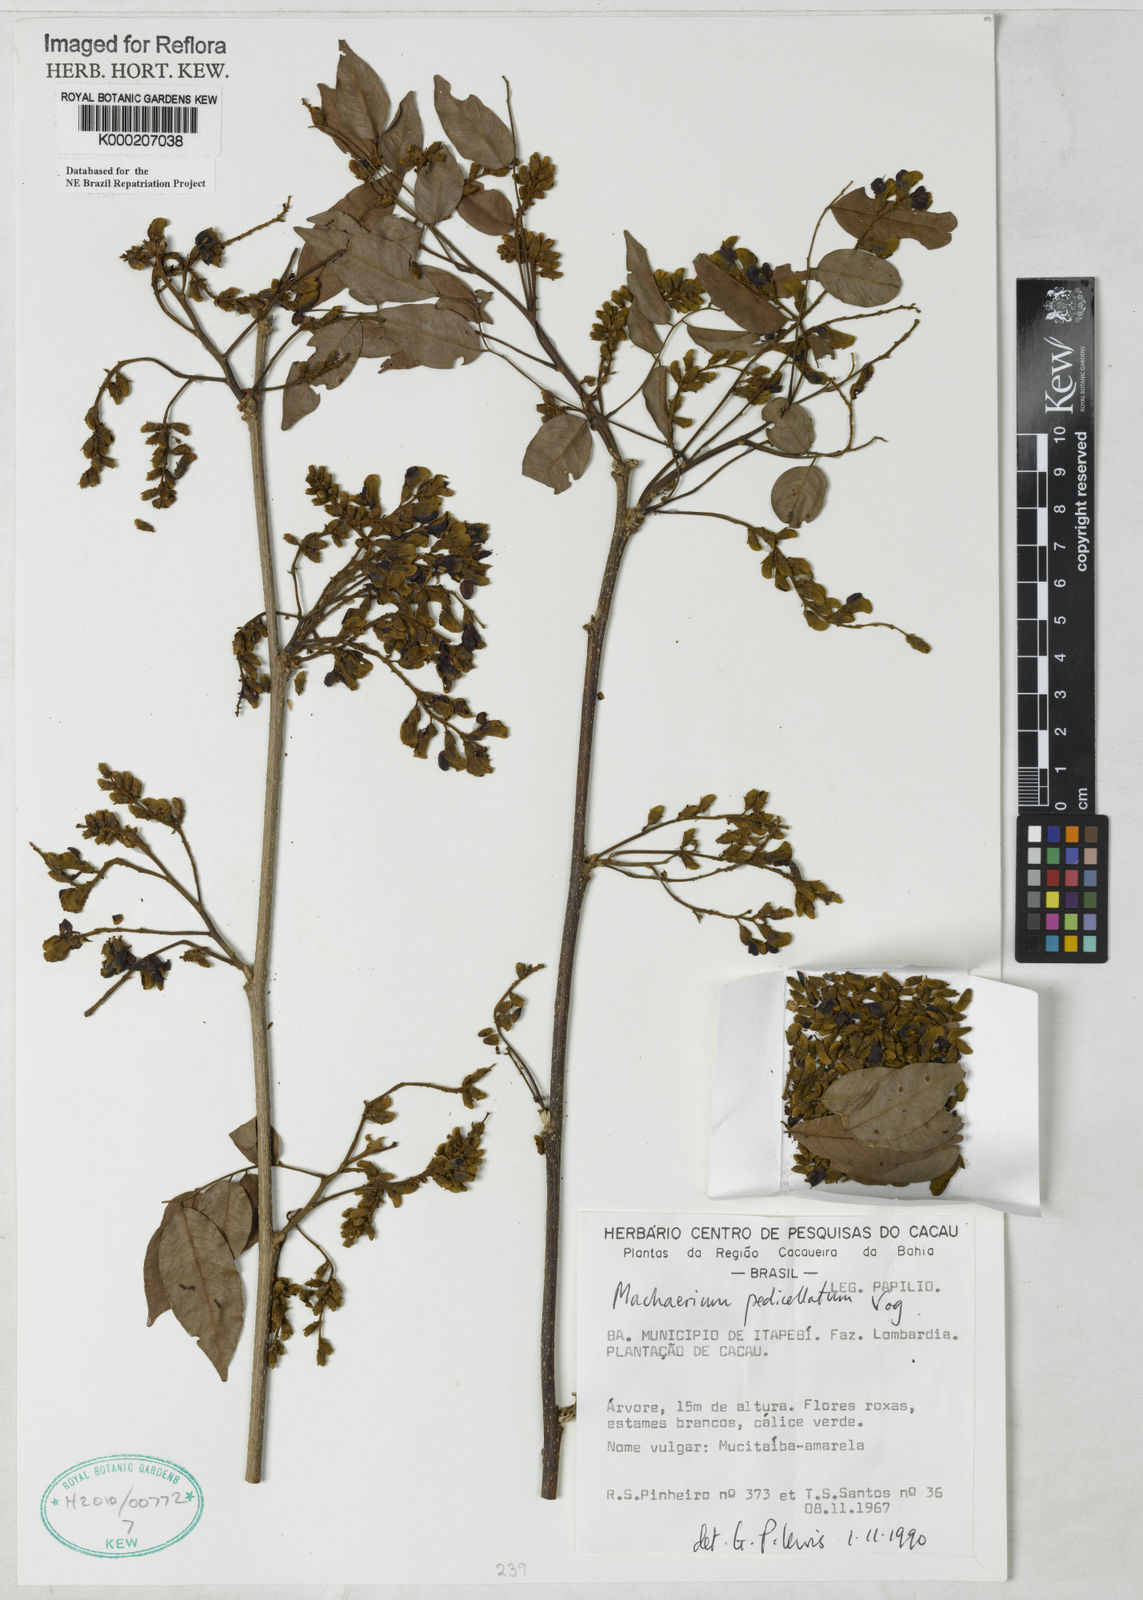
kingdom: Plantae
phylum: Tracheophyta
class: Magnoliopsida
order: Fabales
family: Fabaceae
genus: Machaerium
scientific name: Machaerium pedicellatum
